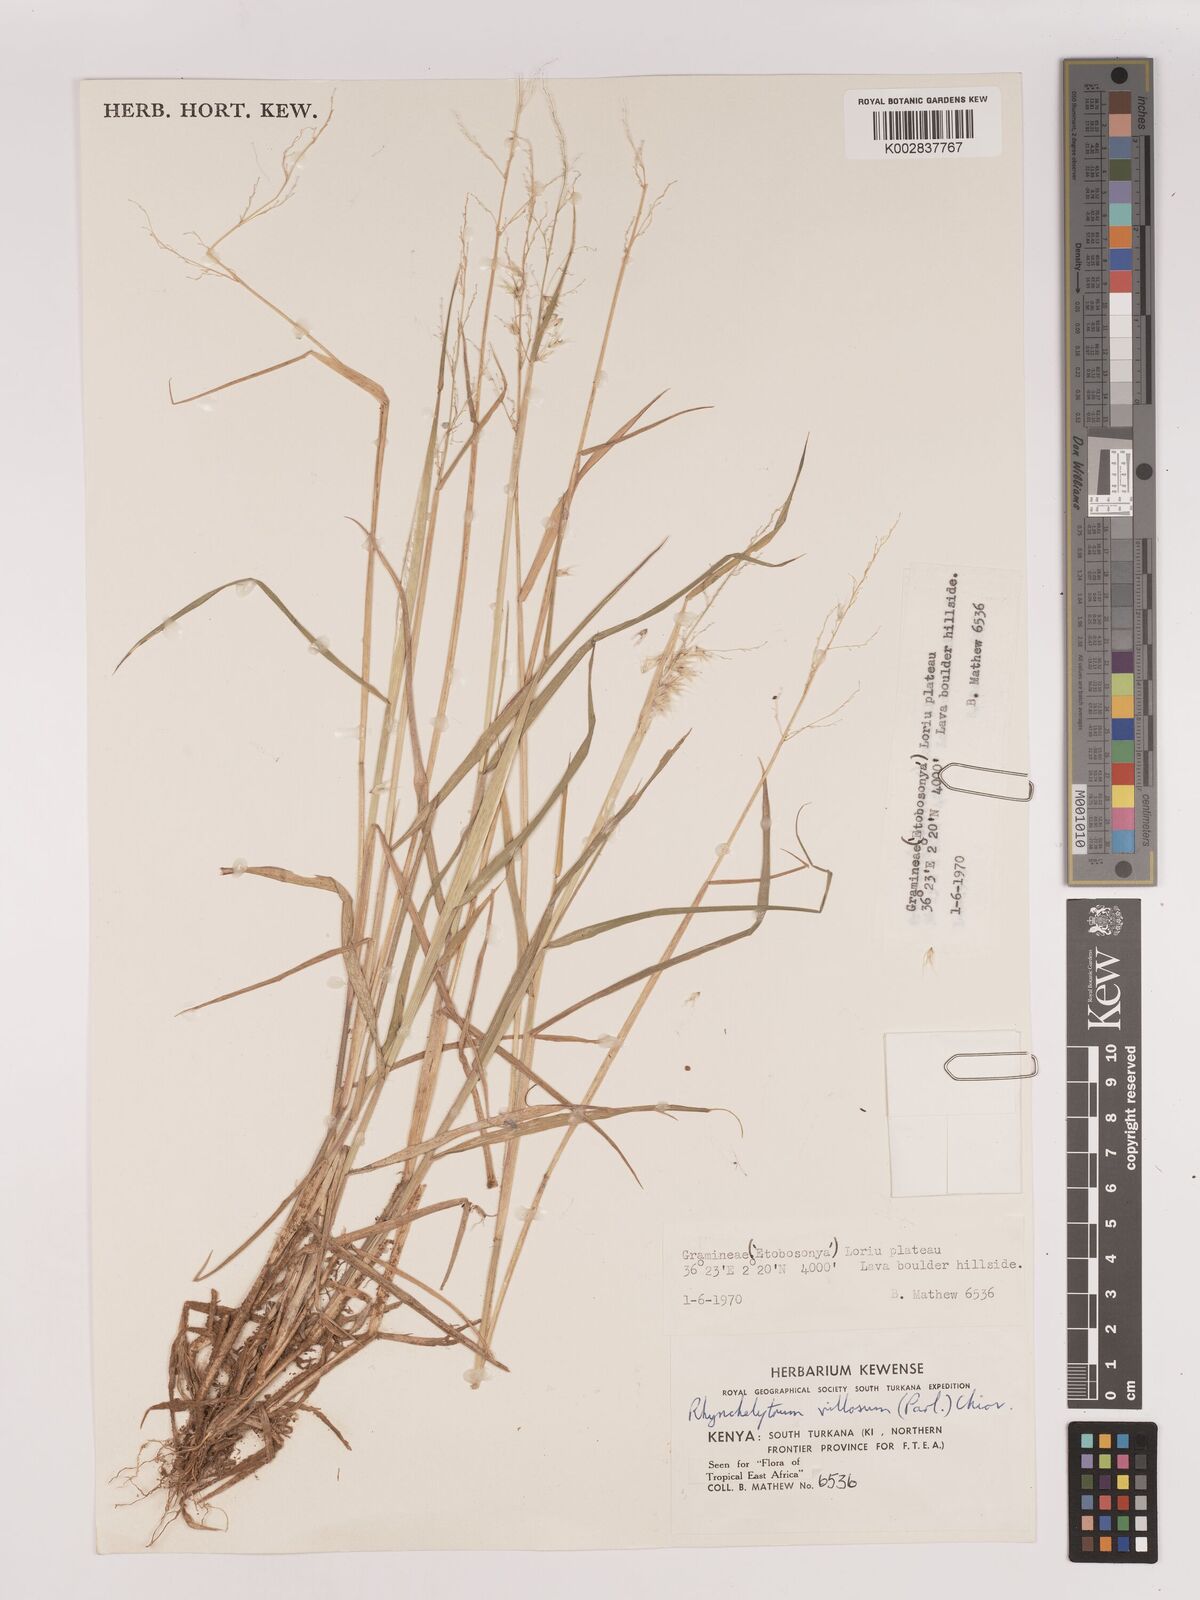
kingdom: Plantae
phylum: Tracheophyta
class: Liliopsida
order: Poales
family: Poaceae
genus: Melinis
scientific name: Melinis repens
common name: Rose natal grass
